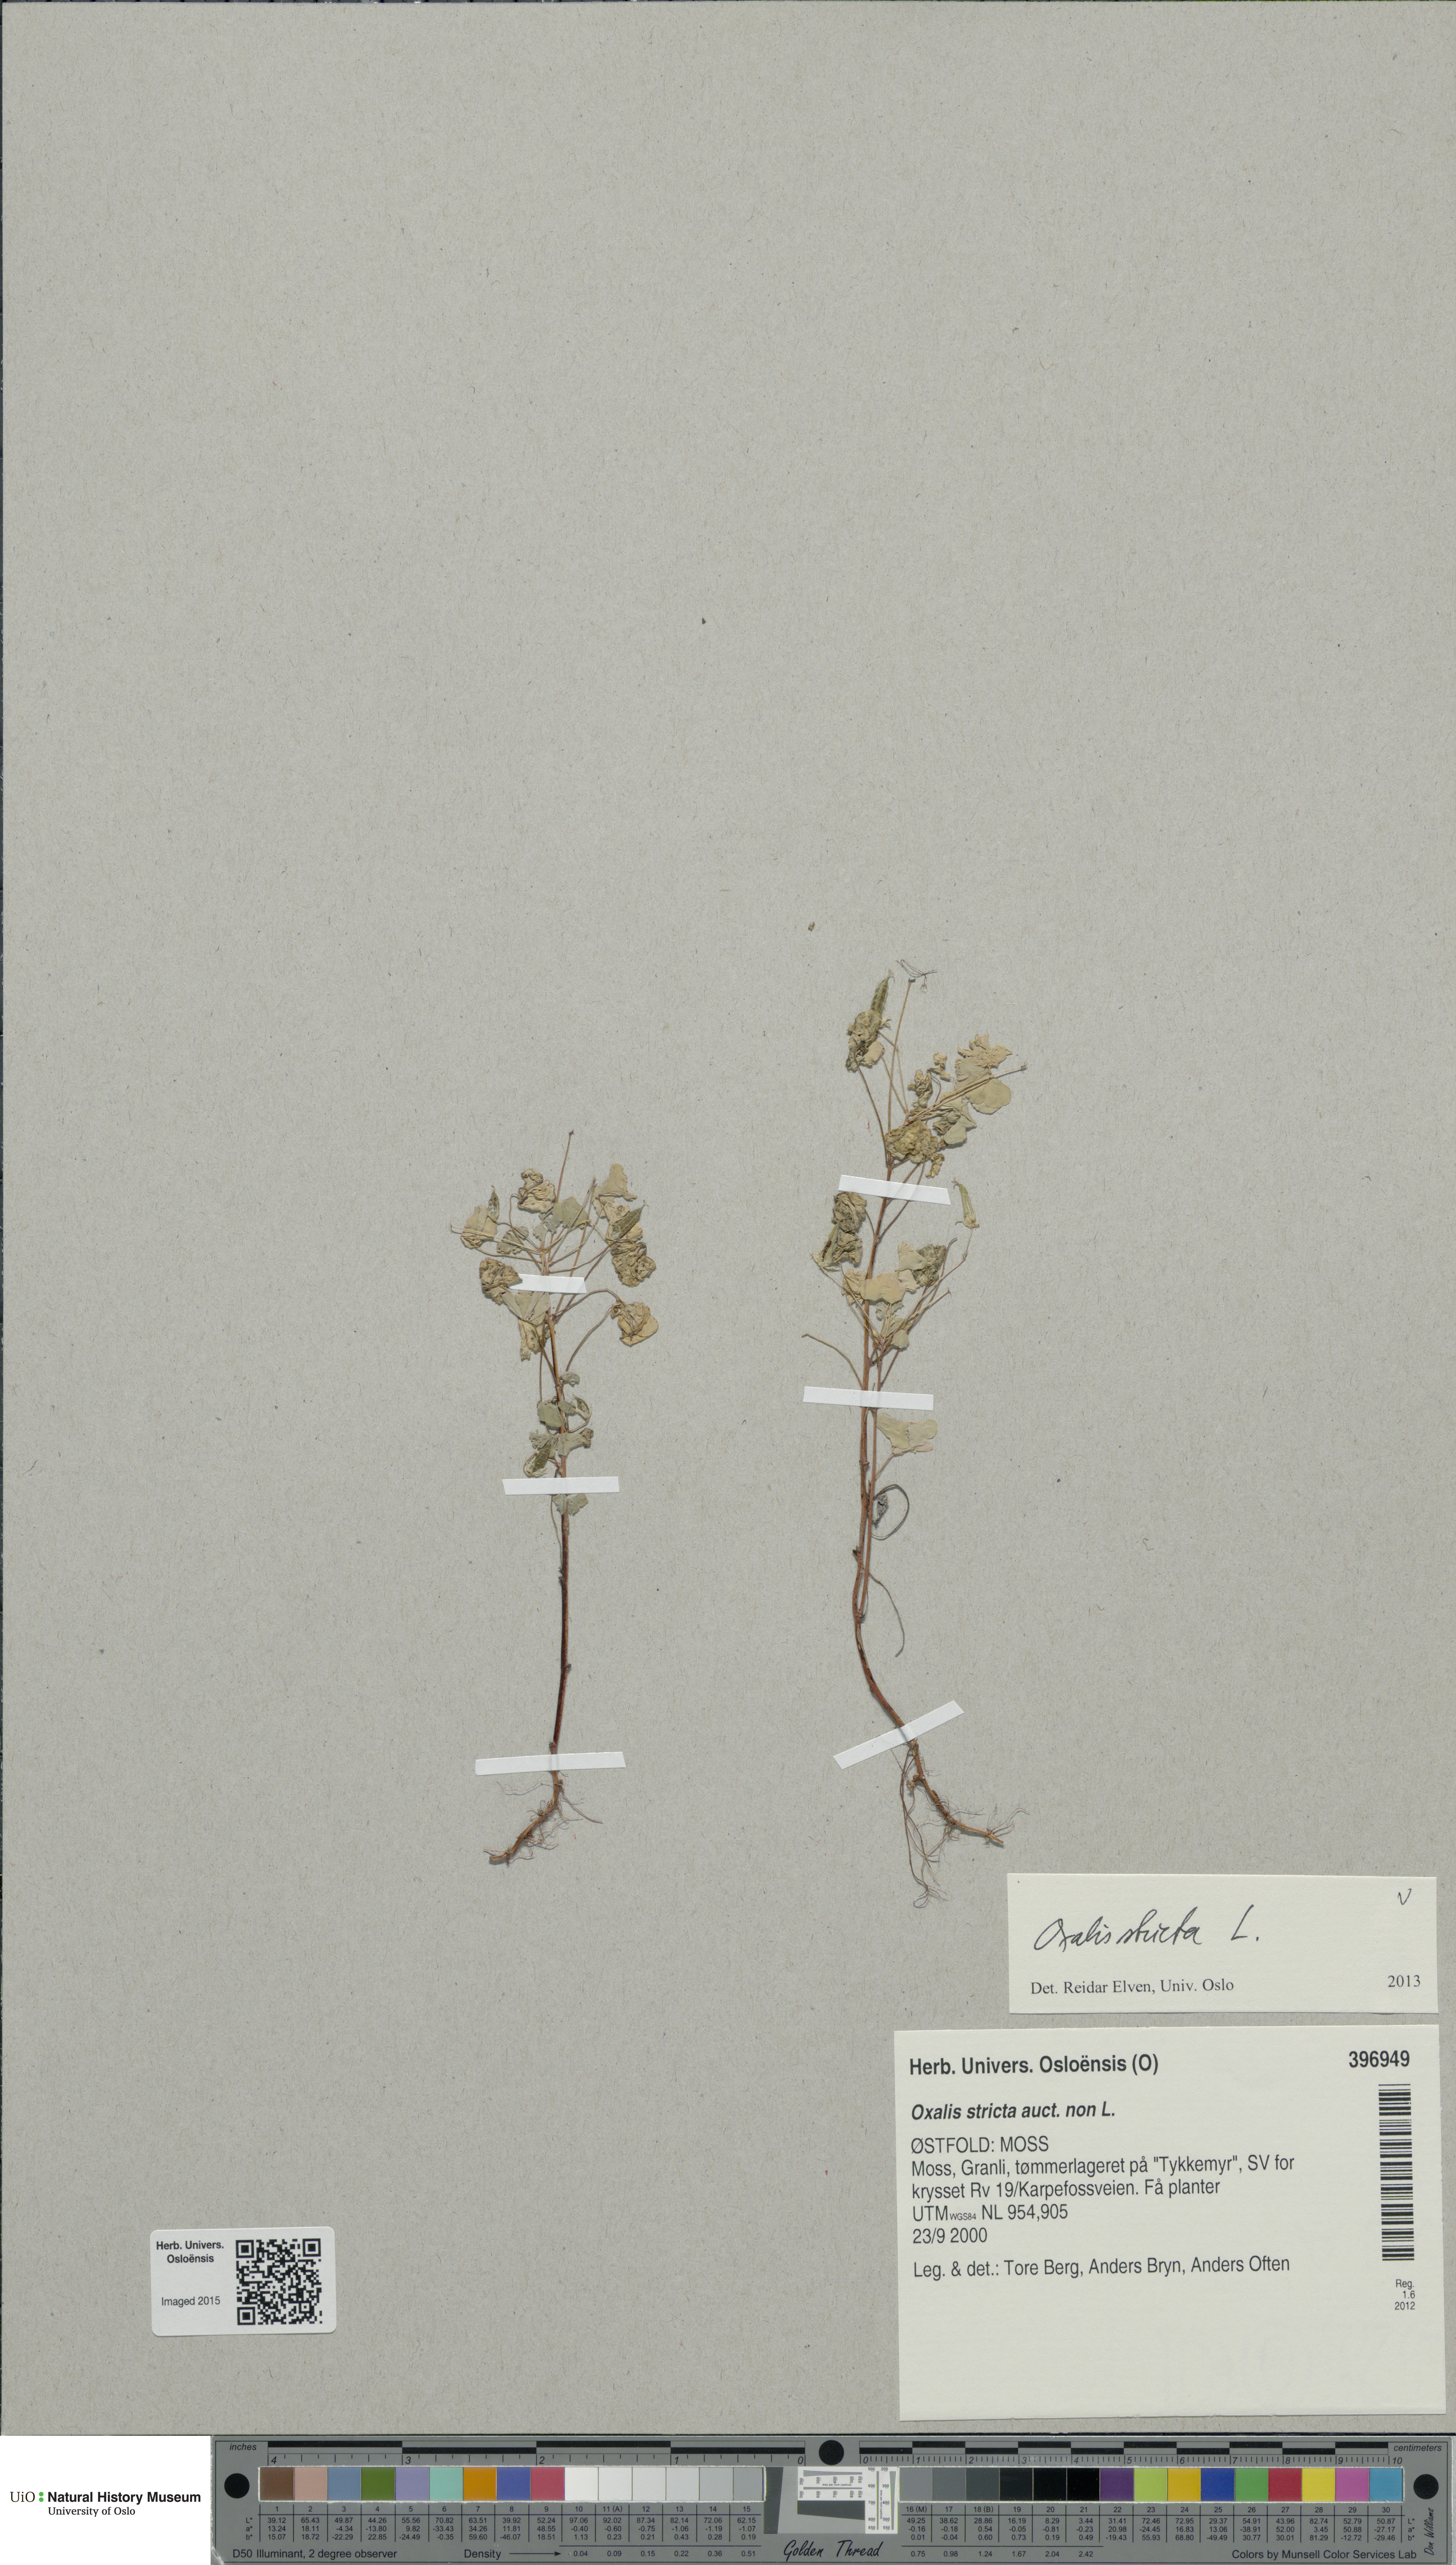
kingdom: Plantae
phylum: Tracheophyta
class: Magnoliopsida
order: Oxalidales
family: Oxalidaceae
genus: Oxalis
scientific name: Oxalis dillenii
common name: Sussex yellow-sorrel
